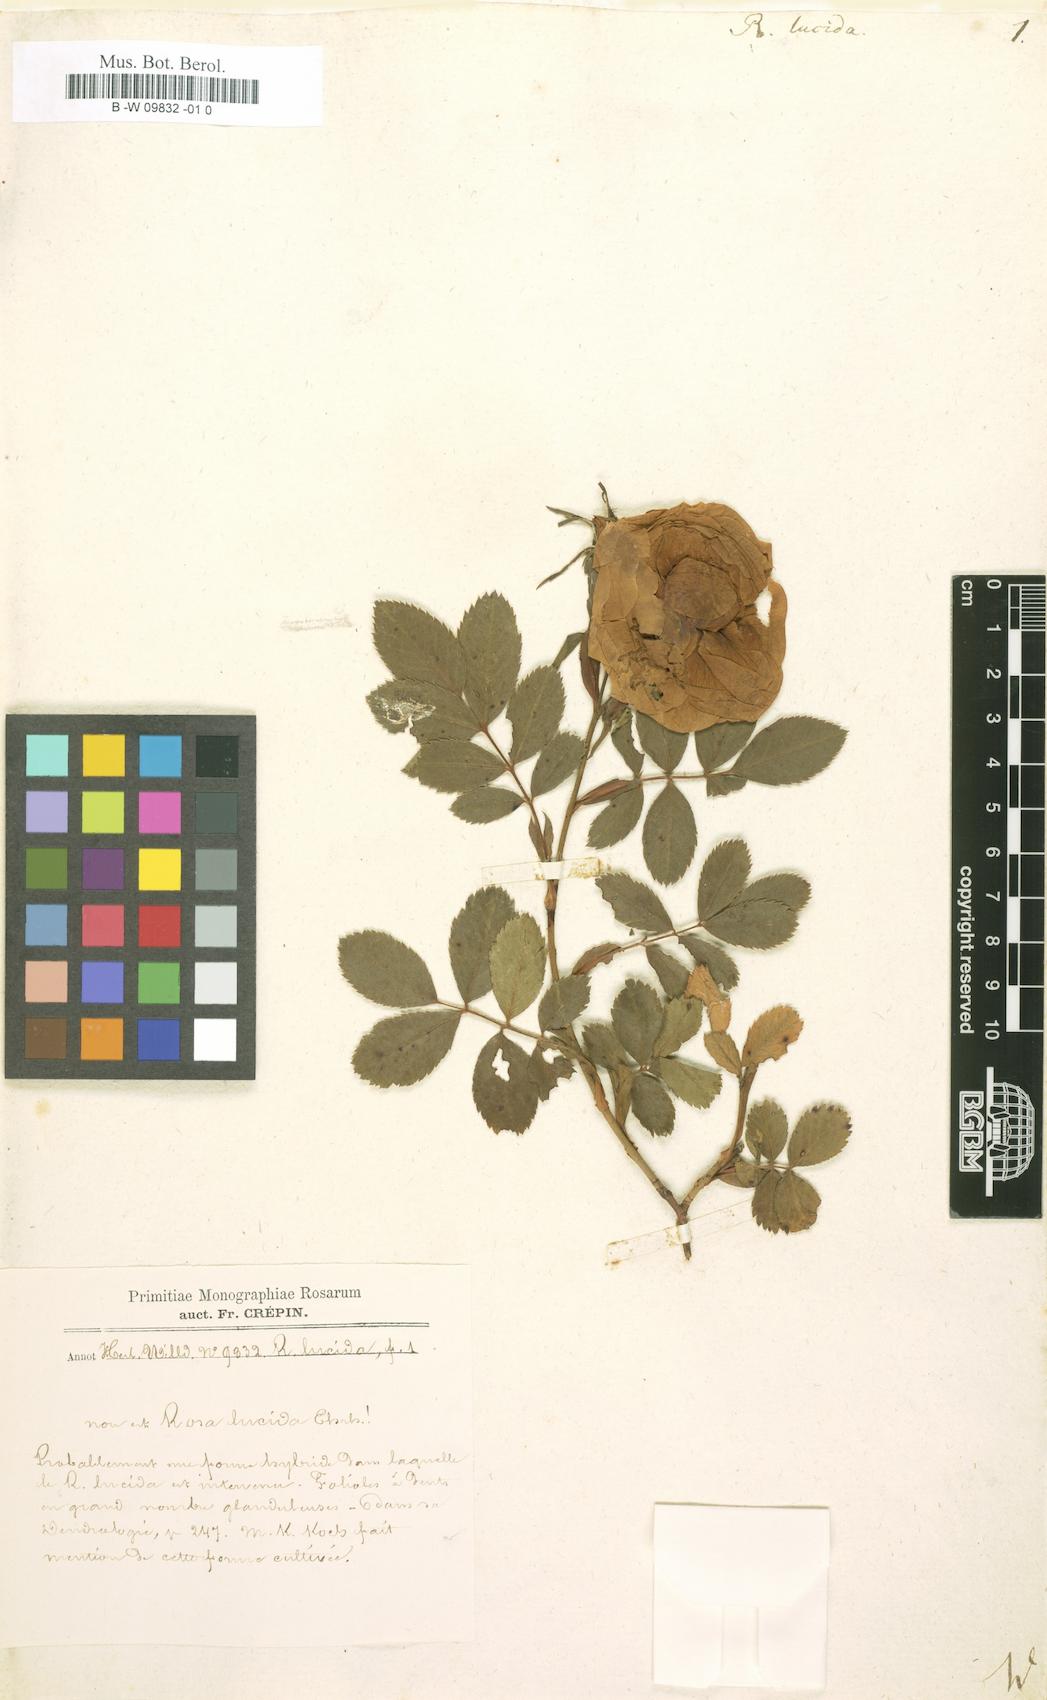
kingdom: Plantae
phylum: Tracheophyta
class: Magnoliopsida
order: Rosales
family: Rosaceae
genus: Rosa
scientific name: Rosa
